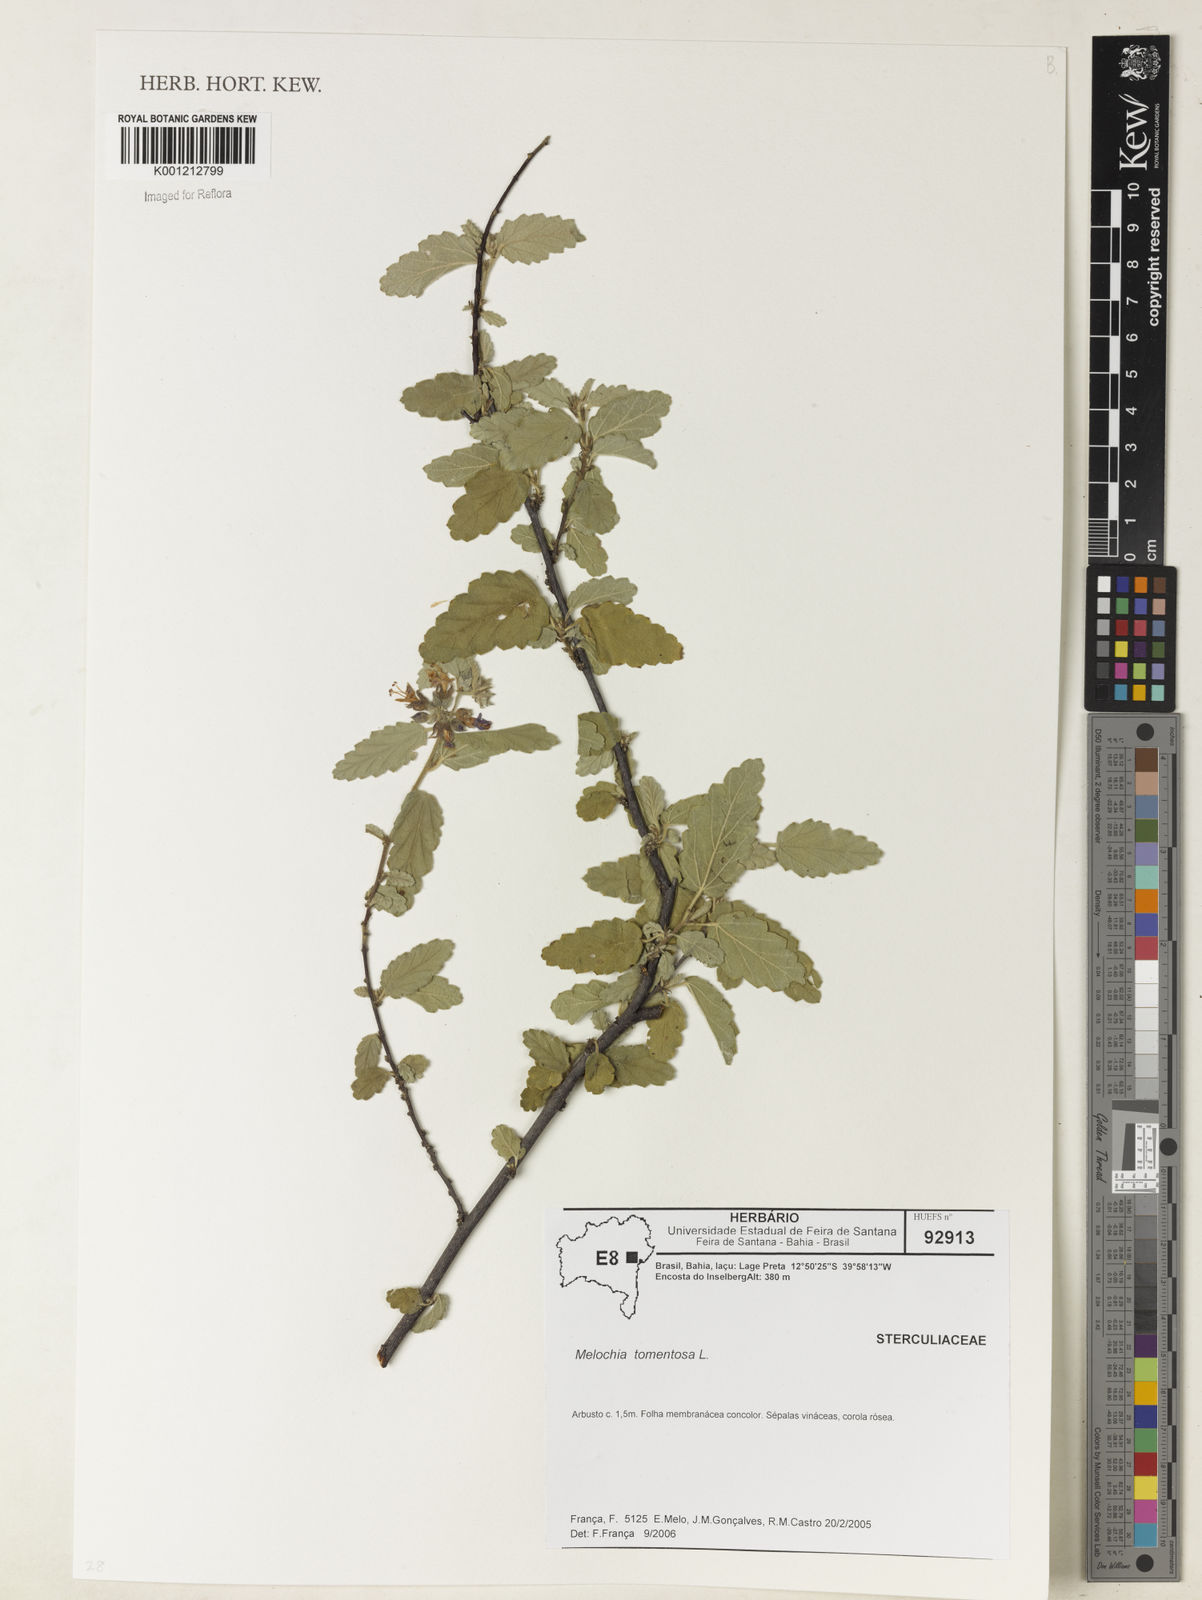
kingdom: Plantae
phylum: Tracheophyta
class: Magnoliopsida
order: Malvales
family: Malvaceae
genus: Melochia
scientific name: Melochia tomentosa
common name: Black torch
